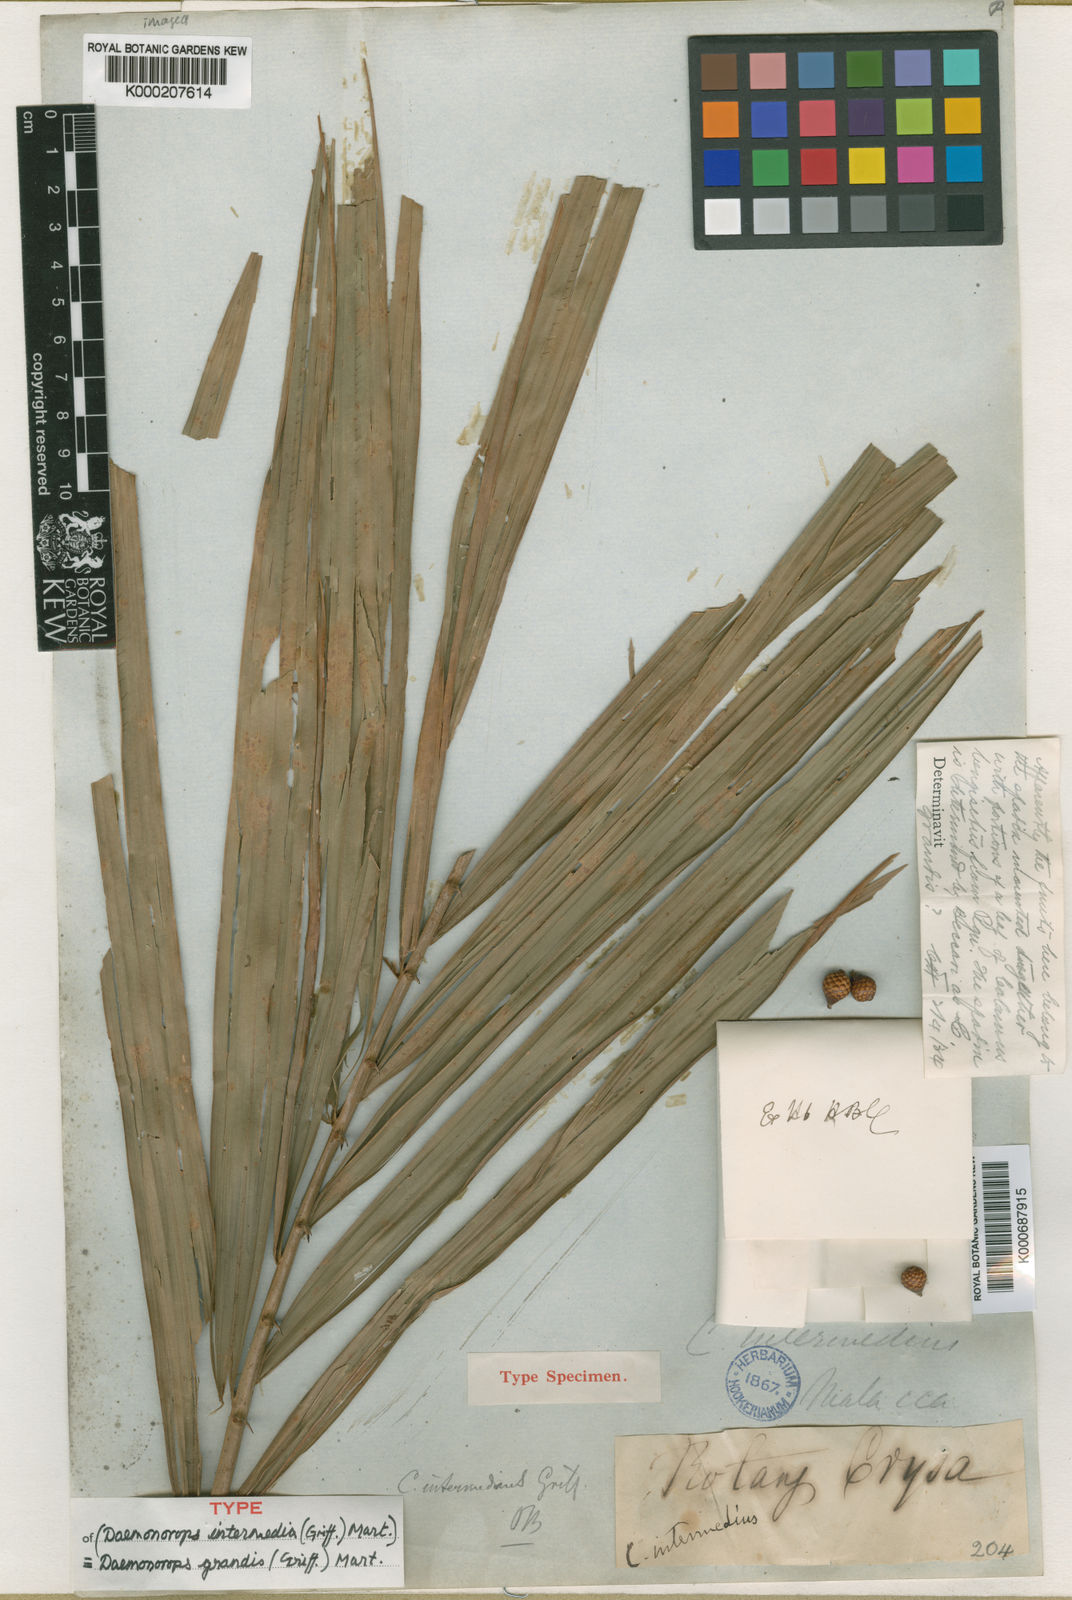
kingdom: Plantae
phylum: Tracheophyta
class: Liliopsida
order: Arecales
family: Arecaceae
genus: Calamus
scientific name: Calamus melanochaetes
